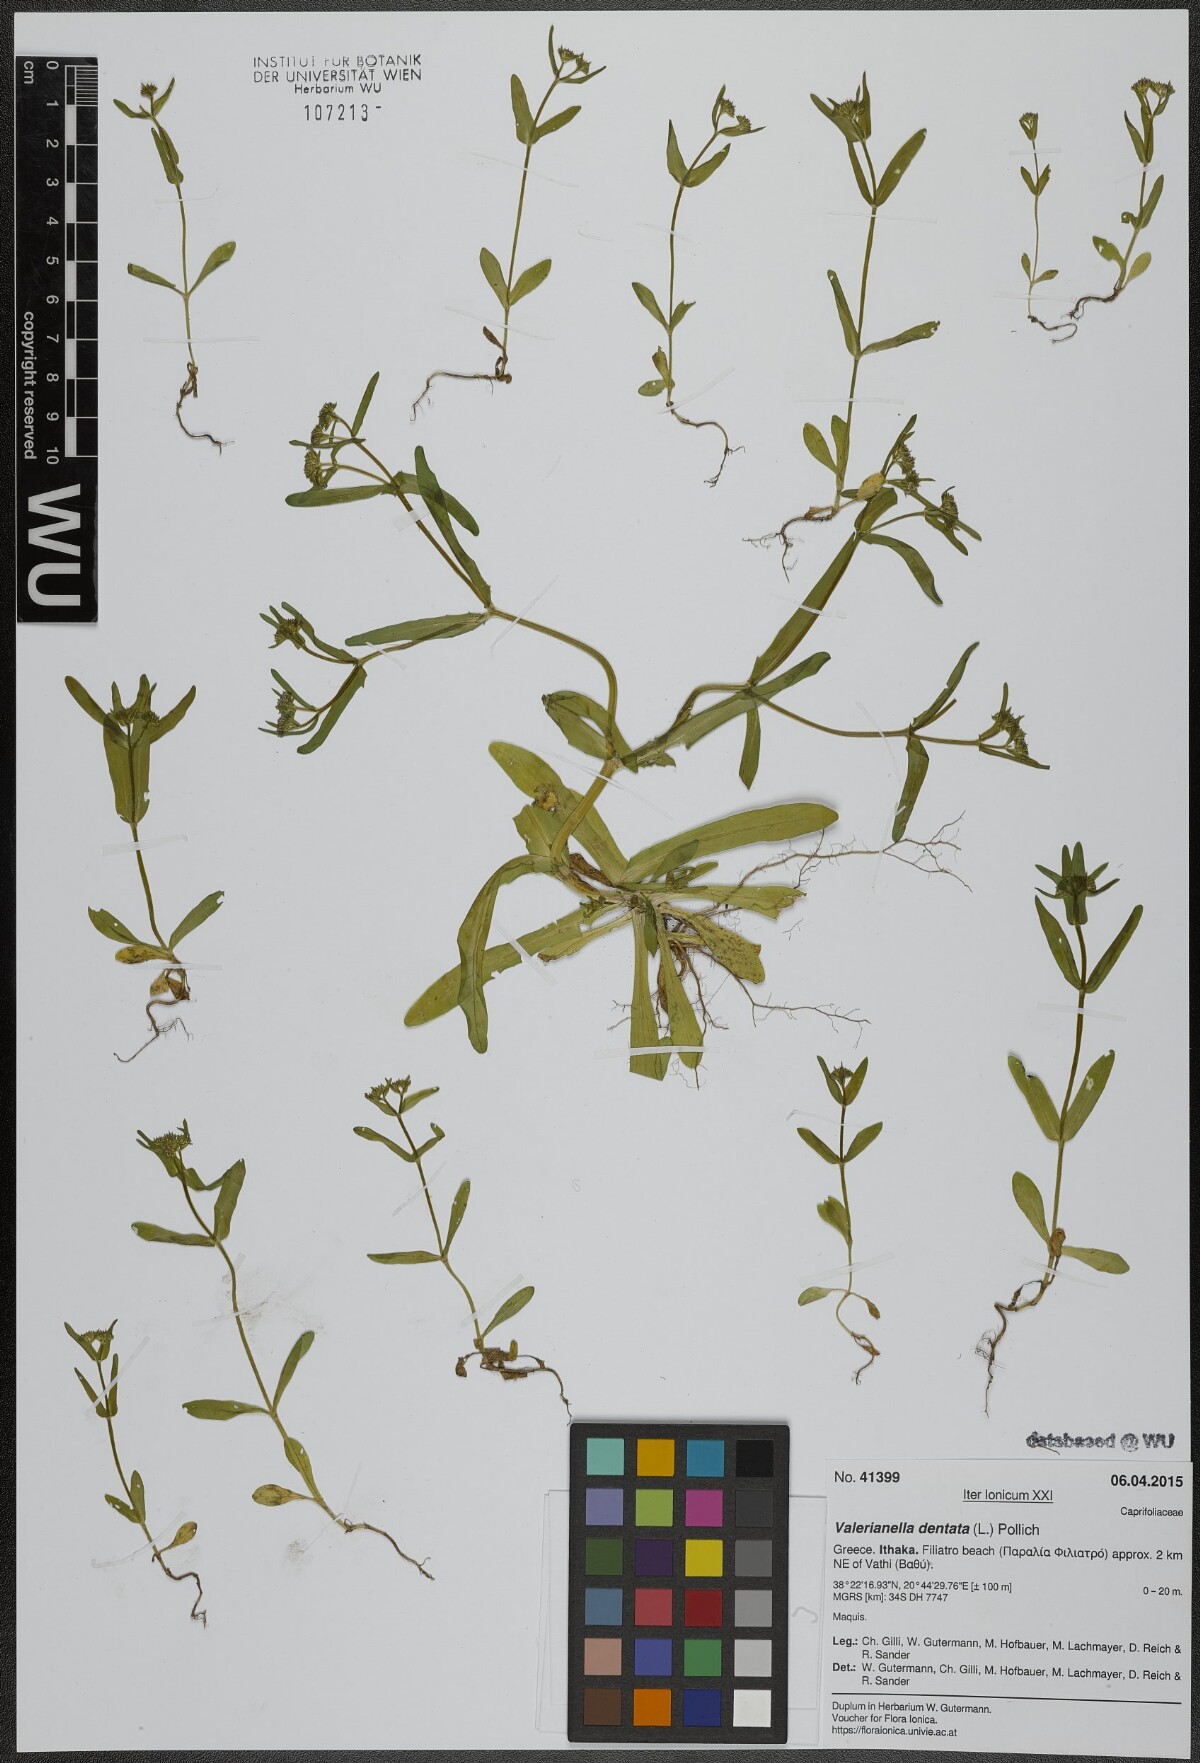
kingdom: Plantae
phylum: Tracheophyta
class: Magnoliopsida
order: Dipsacales
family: Caprifoliaceae
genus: Valerianella
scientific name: Valerianella dentata
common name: Narrow-fruited cornsalad
